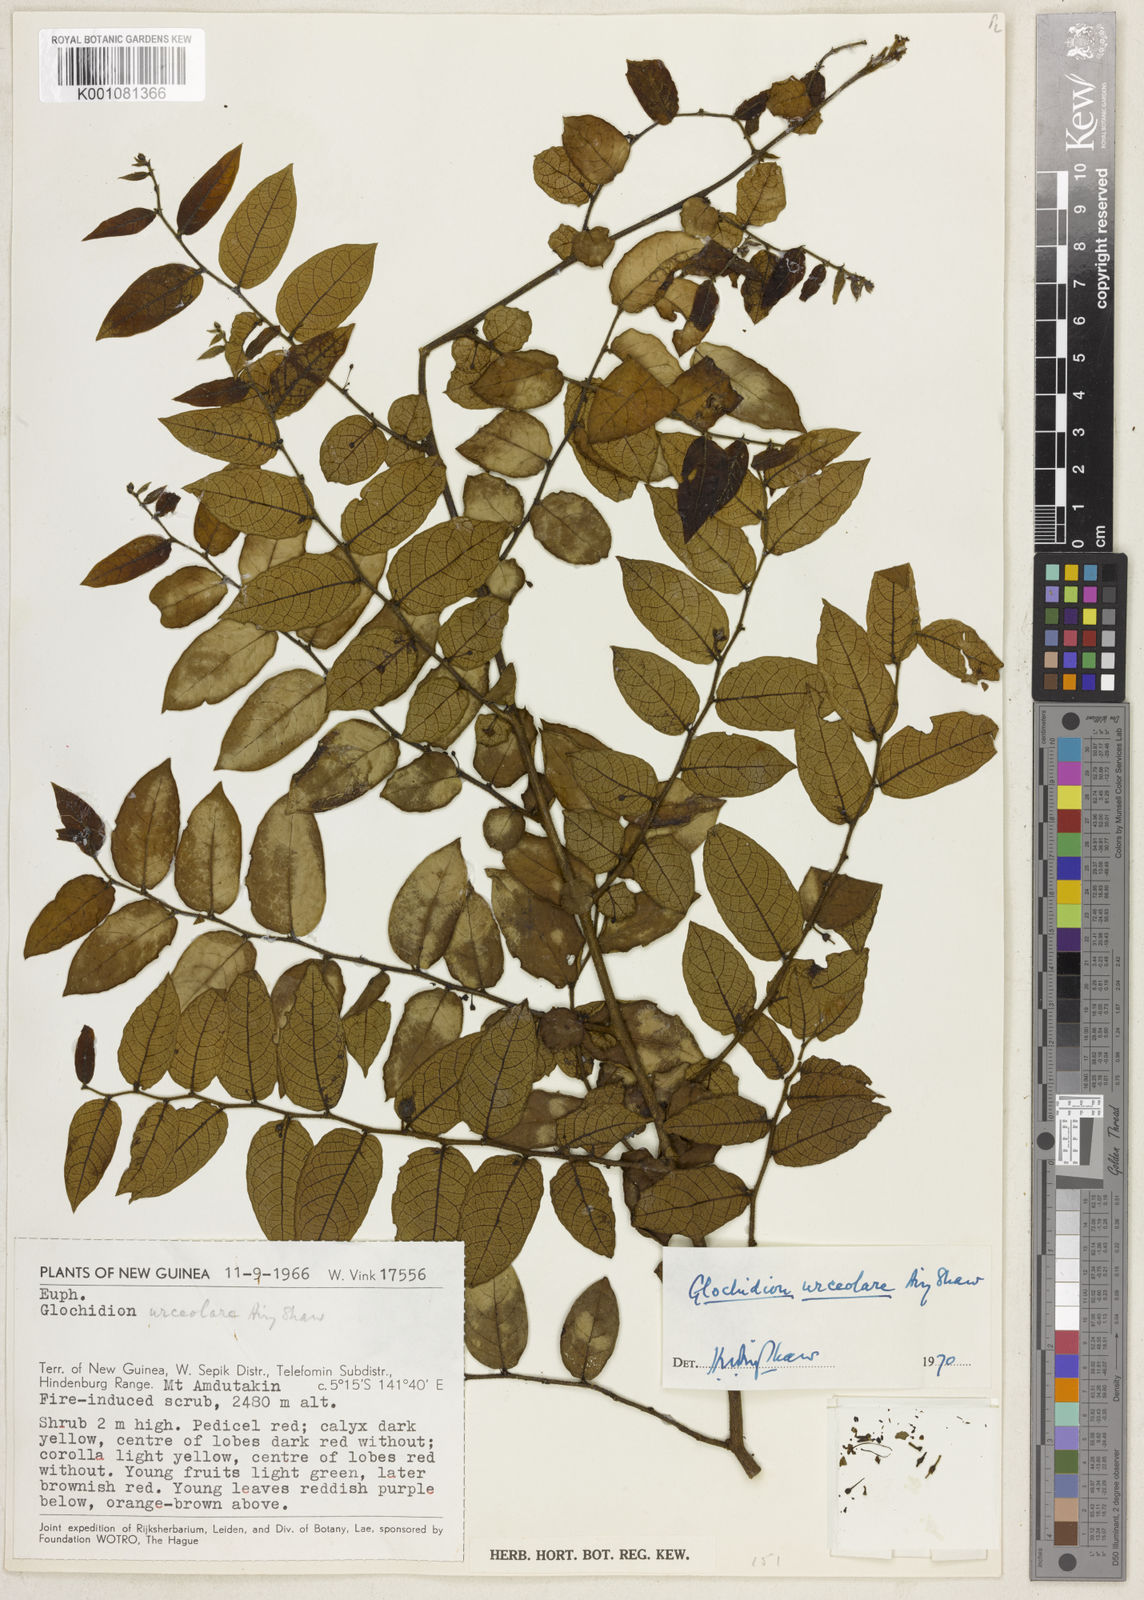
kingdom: Plantae
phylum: Tracheophyta
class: Magnoliopsida
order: Malpighiales
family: Phyllanthaceae
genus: Glochidion
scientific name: Glochidion urceolare
